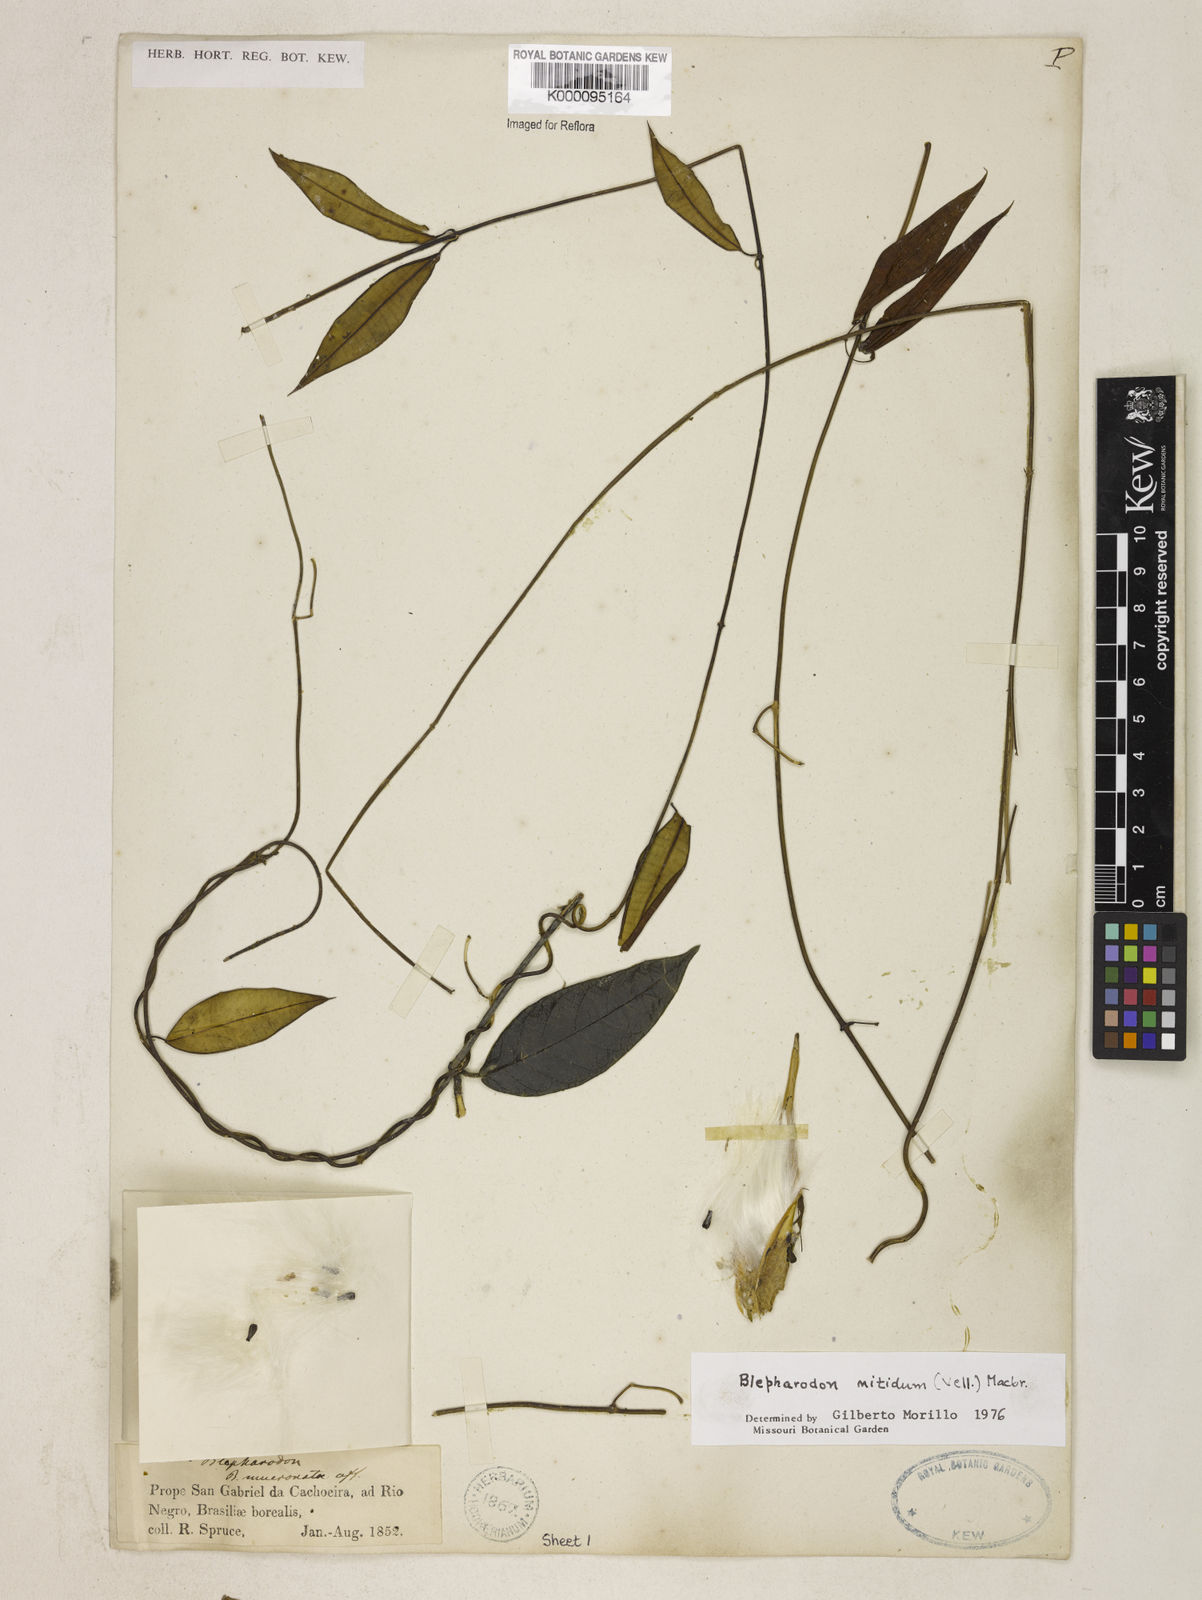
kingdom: Plantae
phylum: Tracheophyta
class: Magnoliopsida
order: Gentianales
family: Apocynaceae
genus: Blepharodon
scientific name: Blepharodon pictum
